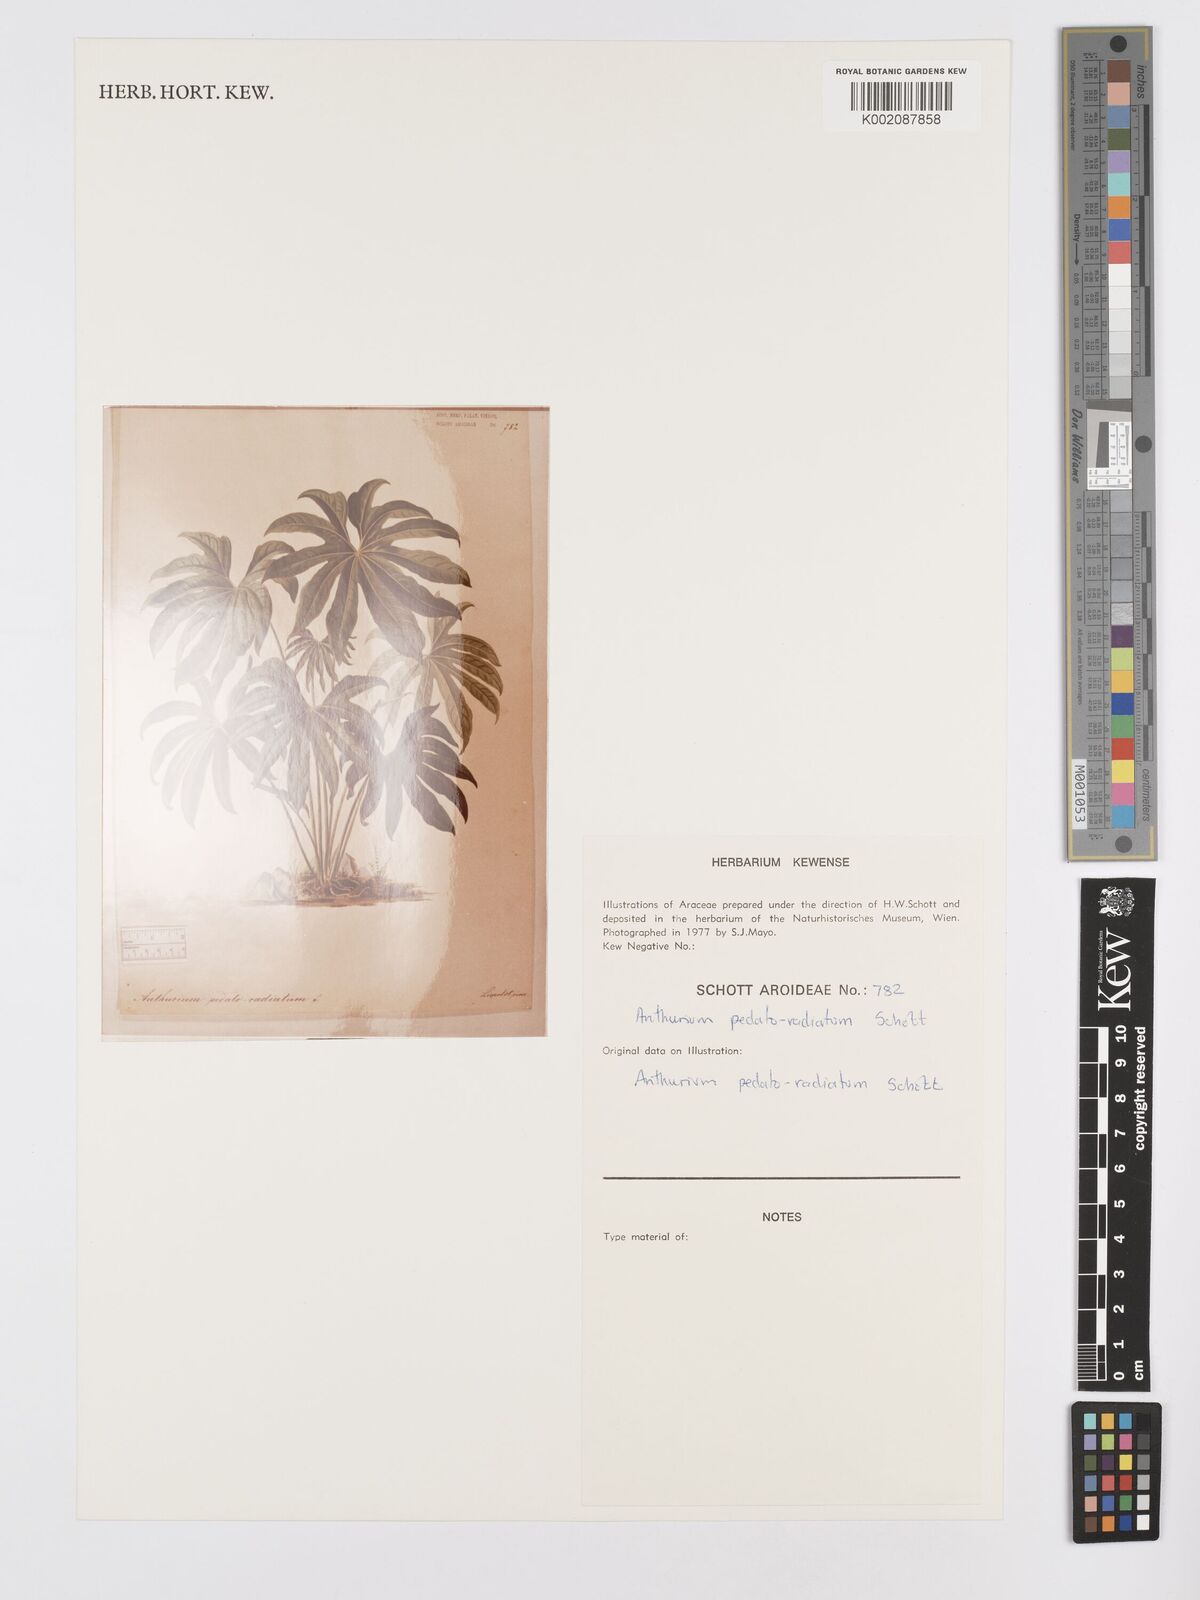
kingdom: Plantae
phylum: Tracheophyta
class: Liliopsida
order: Alismatales
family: Araceae
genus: Anthurium
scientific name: Anthurium pedatoradiatum
